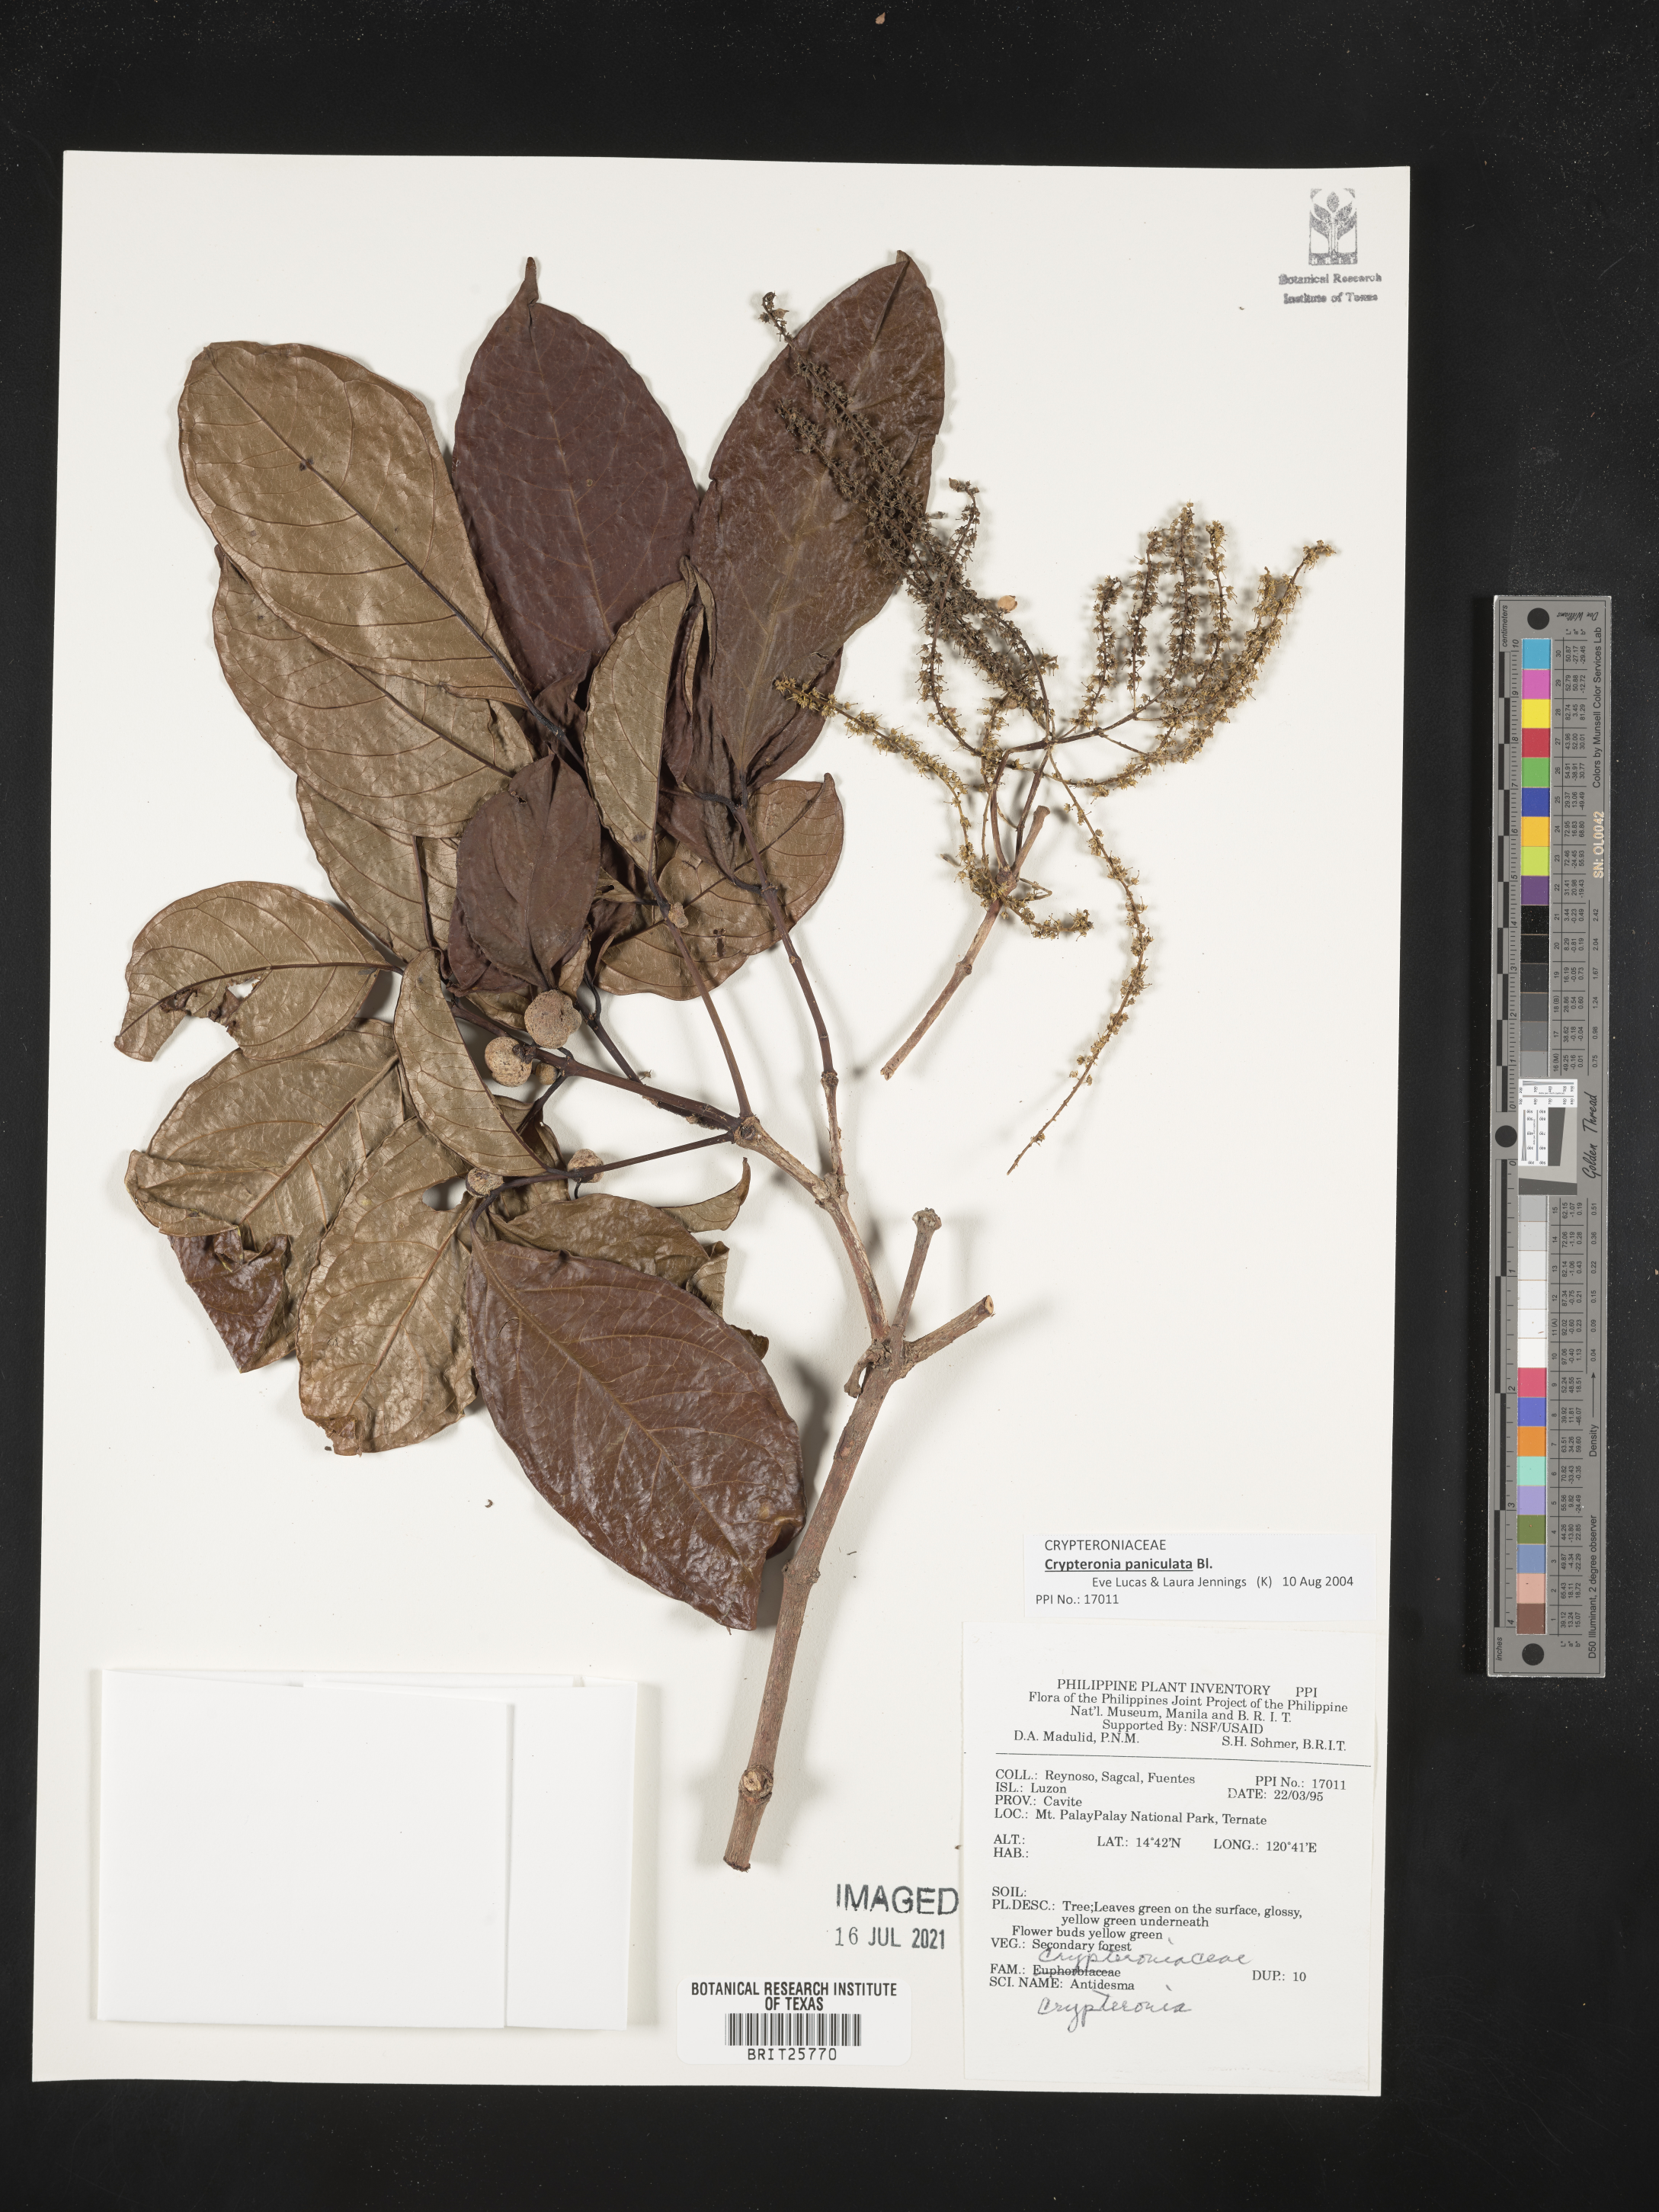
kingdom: Plantae
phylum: Tracheophyta
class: Magnoliopsida
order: Myrtales
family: Crypteroniaceae
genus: Crypteronia
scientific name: Crypteronia
